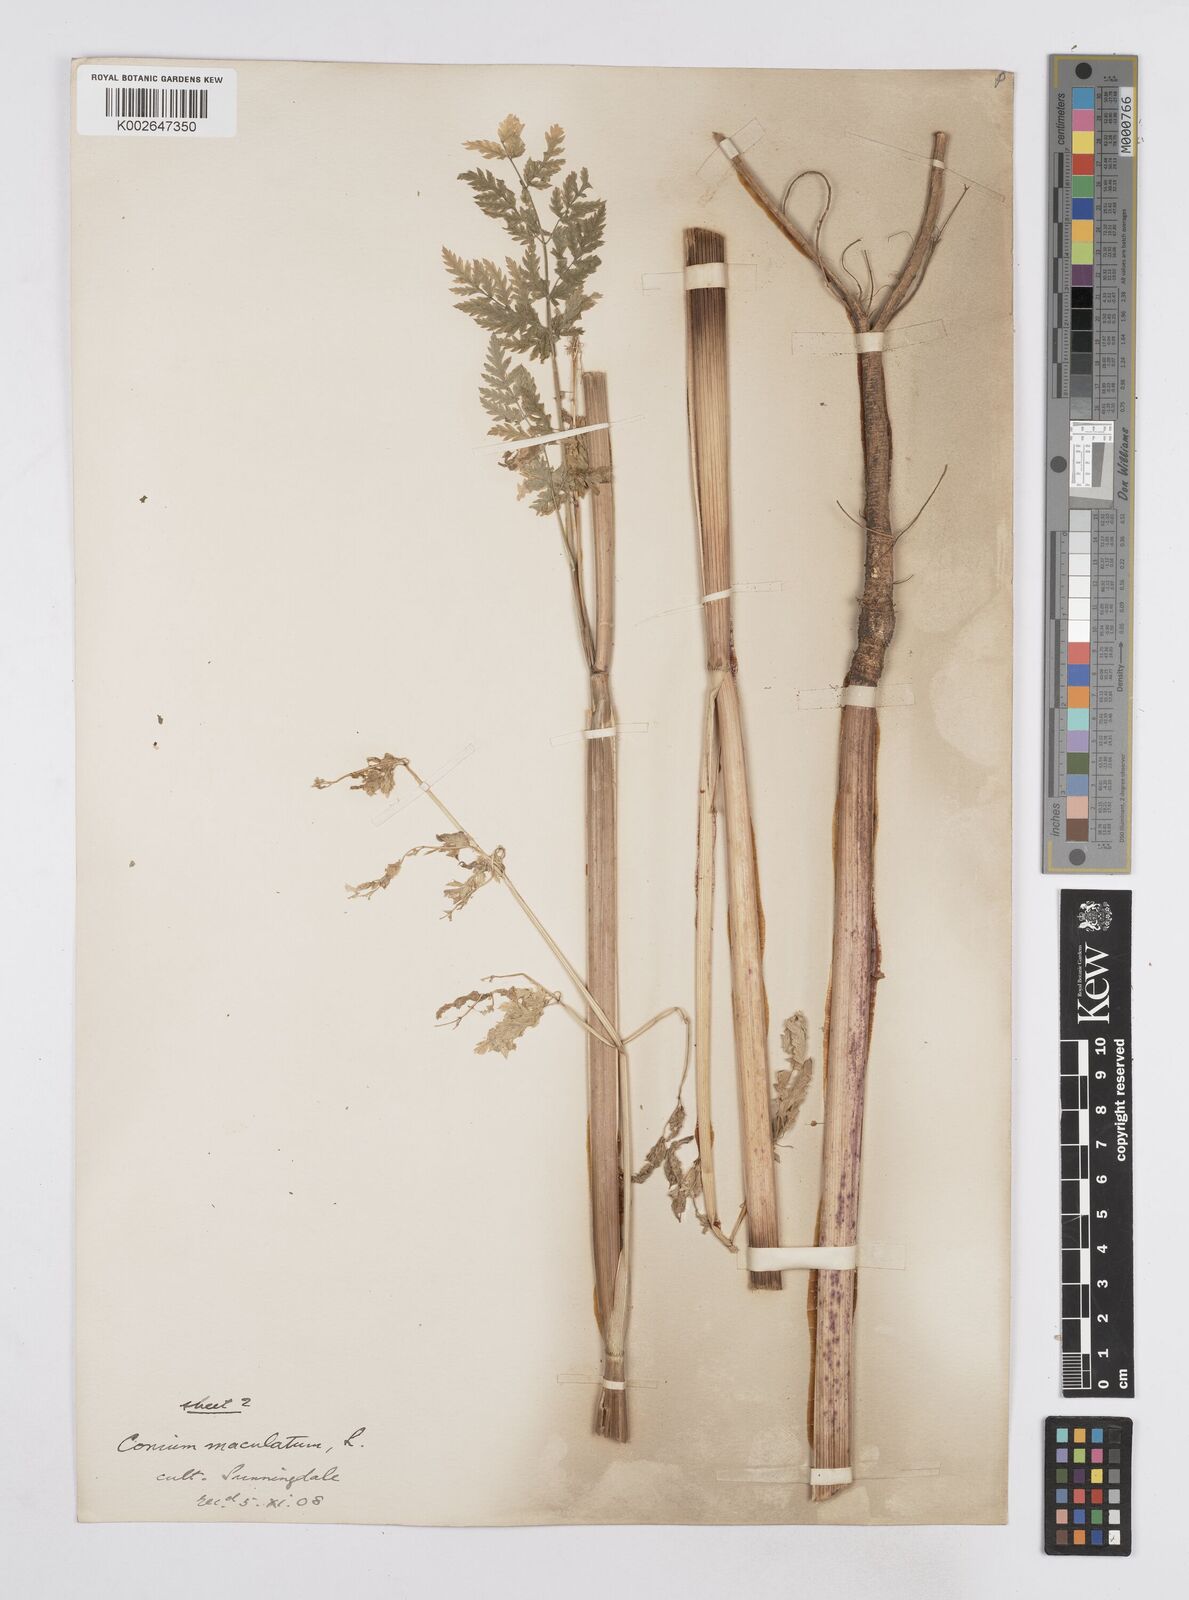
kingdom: Plantae
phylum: Tracheophyta
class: Magnoliopsida
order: Apiales
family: Apiaceae
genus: Conium
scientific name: Conium maculatum
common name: Hemlock
